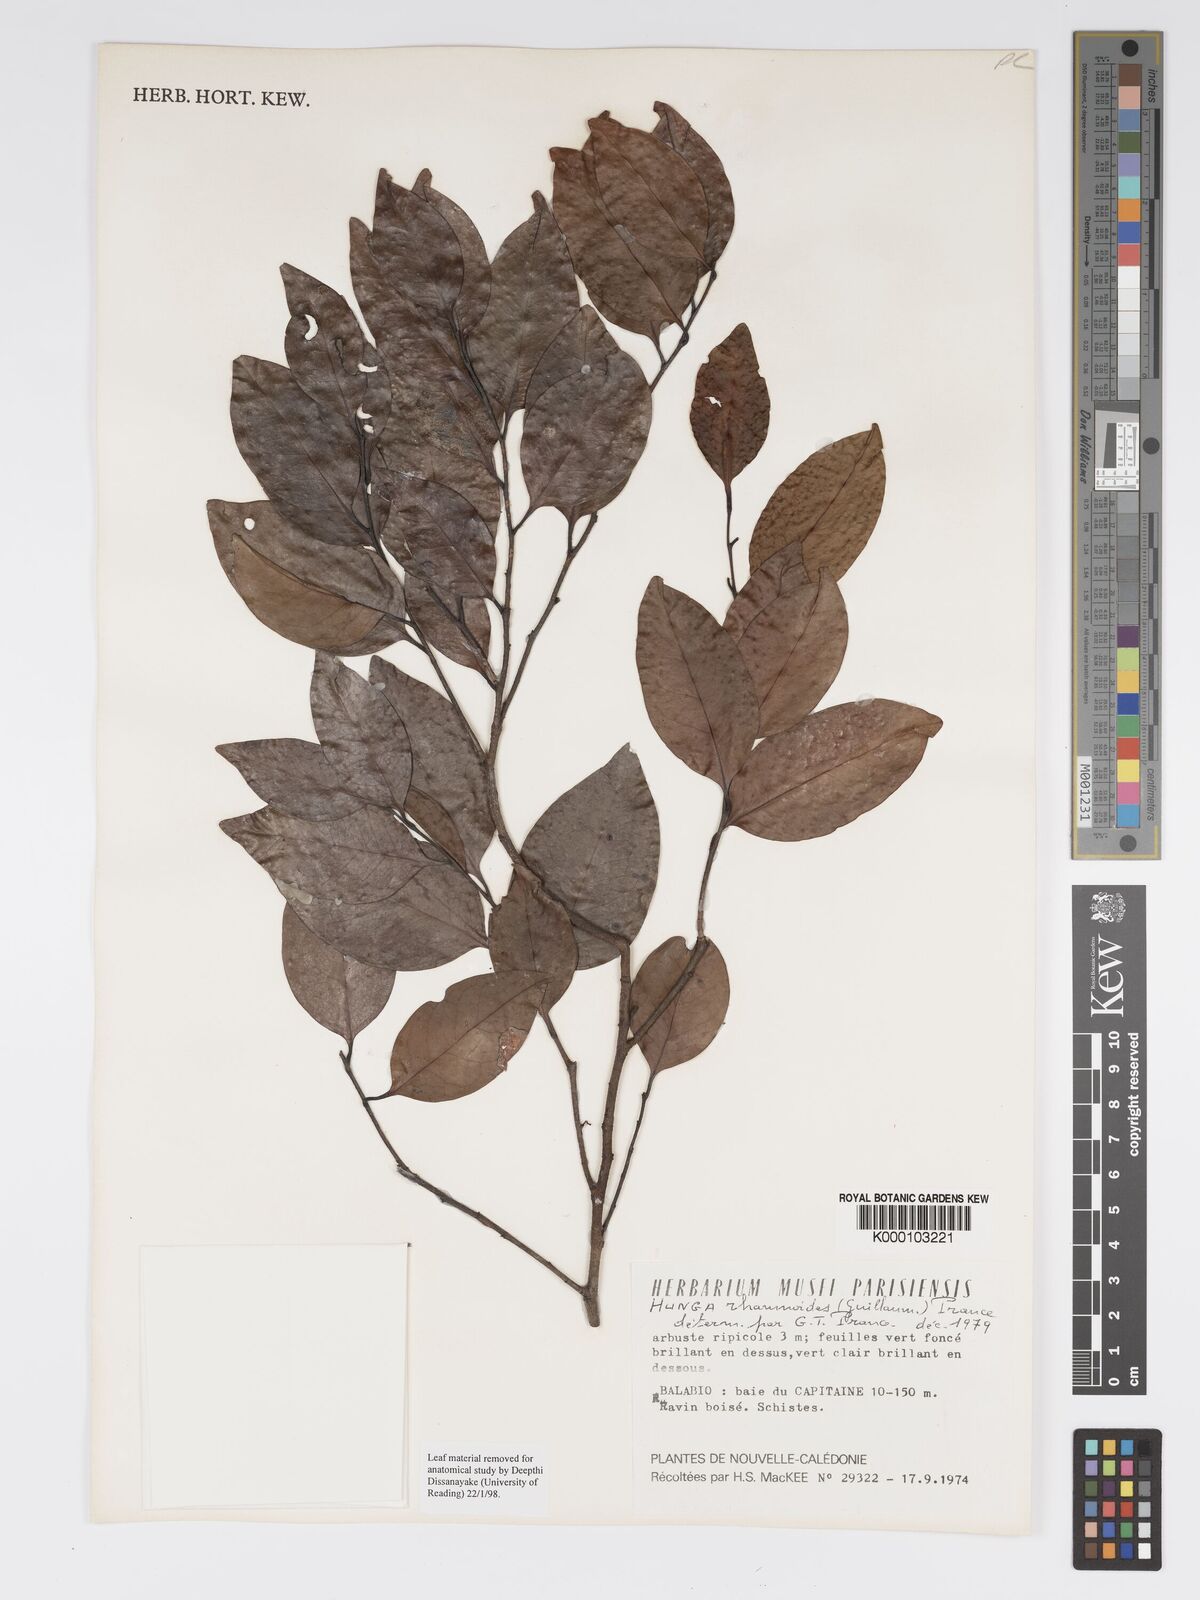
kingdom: Plantae
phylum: Tracheophyta
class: Magnoliopsida
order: Malpighiales
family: Chrysobalanaceae
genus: Hunga
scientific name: Hunga rhamnoides
